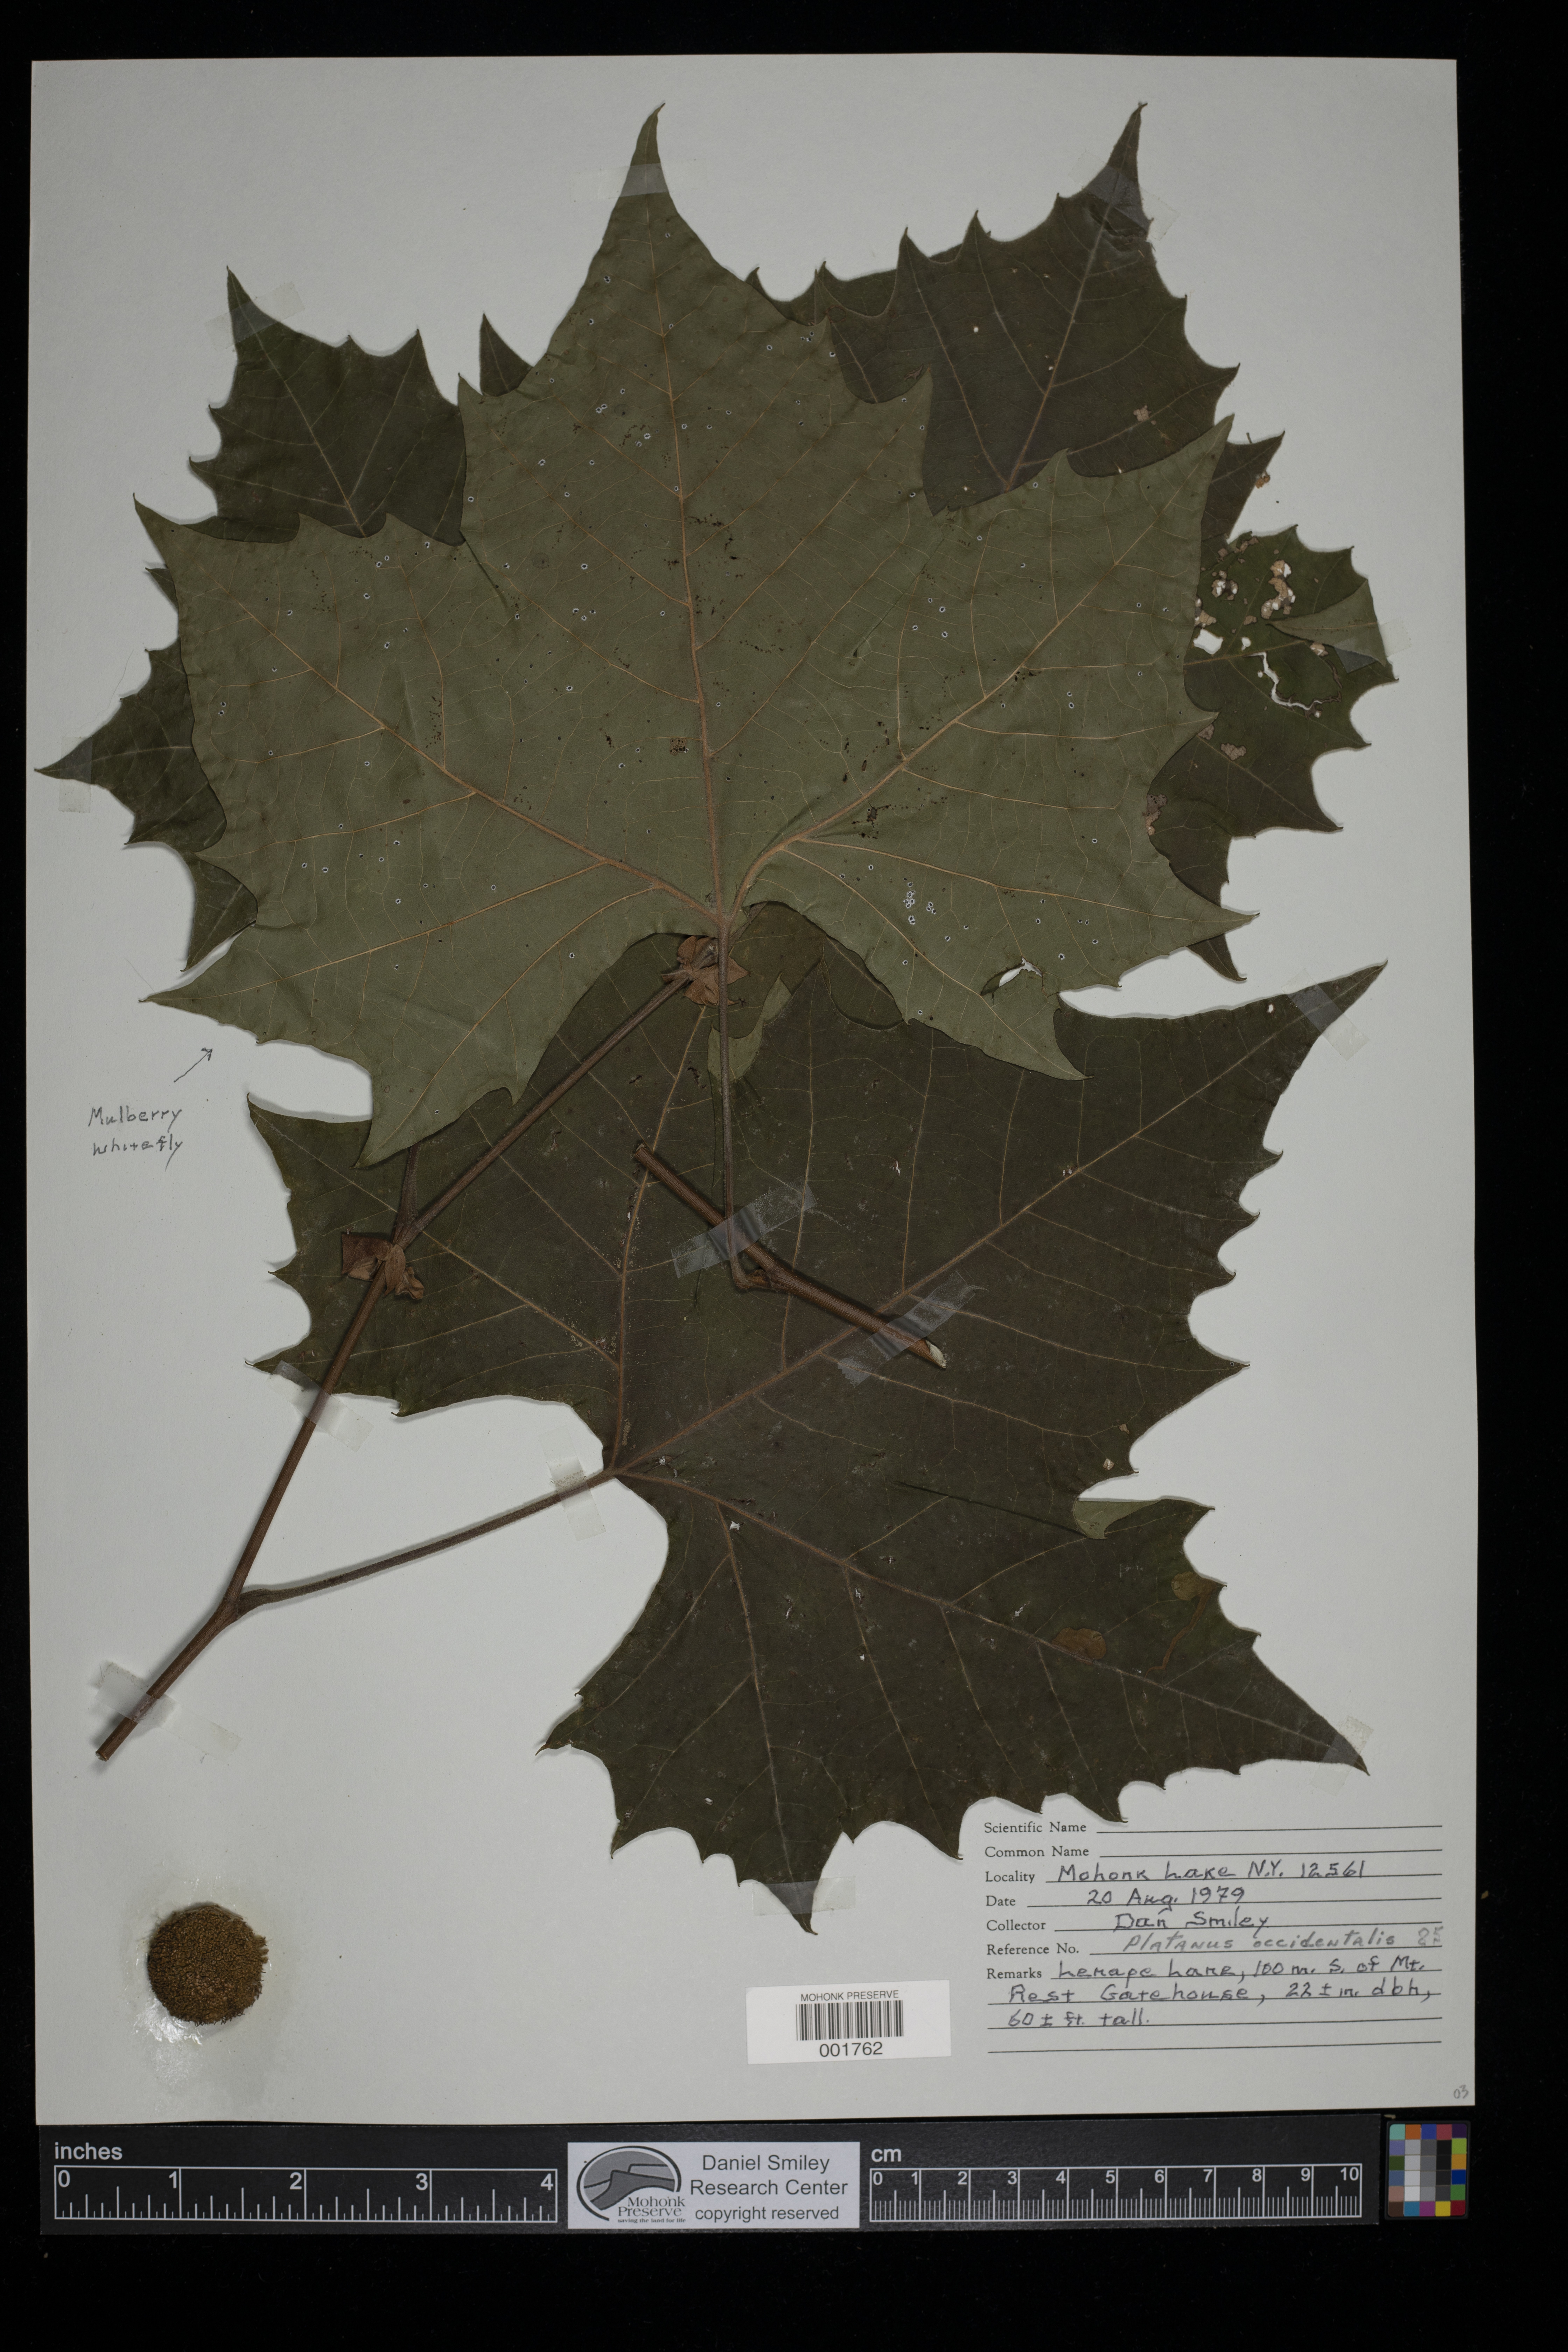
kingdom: Plantae
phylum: Tracheophyta
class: Magnoliopsida
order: Proteales
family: Platanaceae
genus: Platanus
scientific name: Platanus occidentalis
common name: American sycamore
